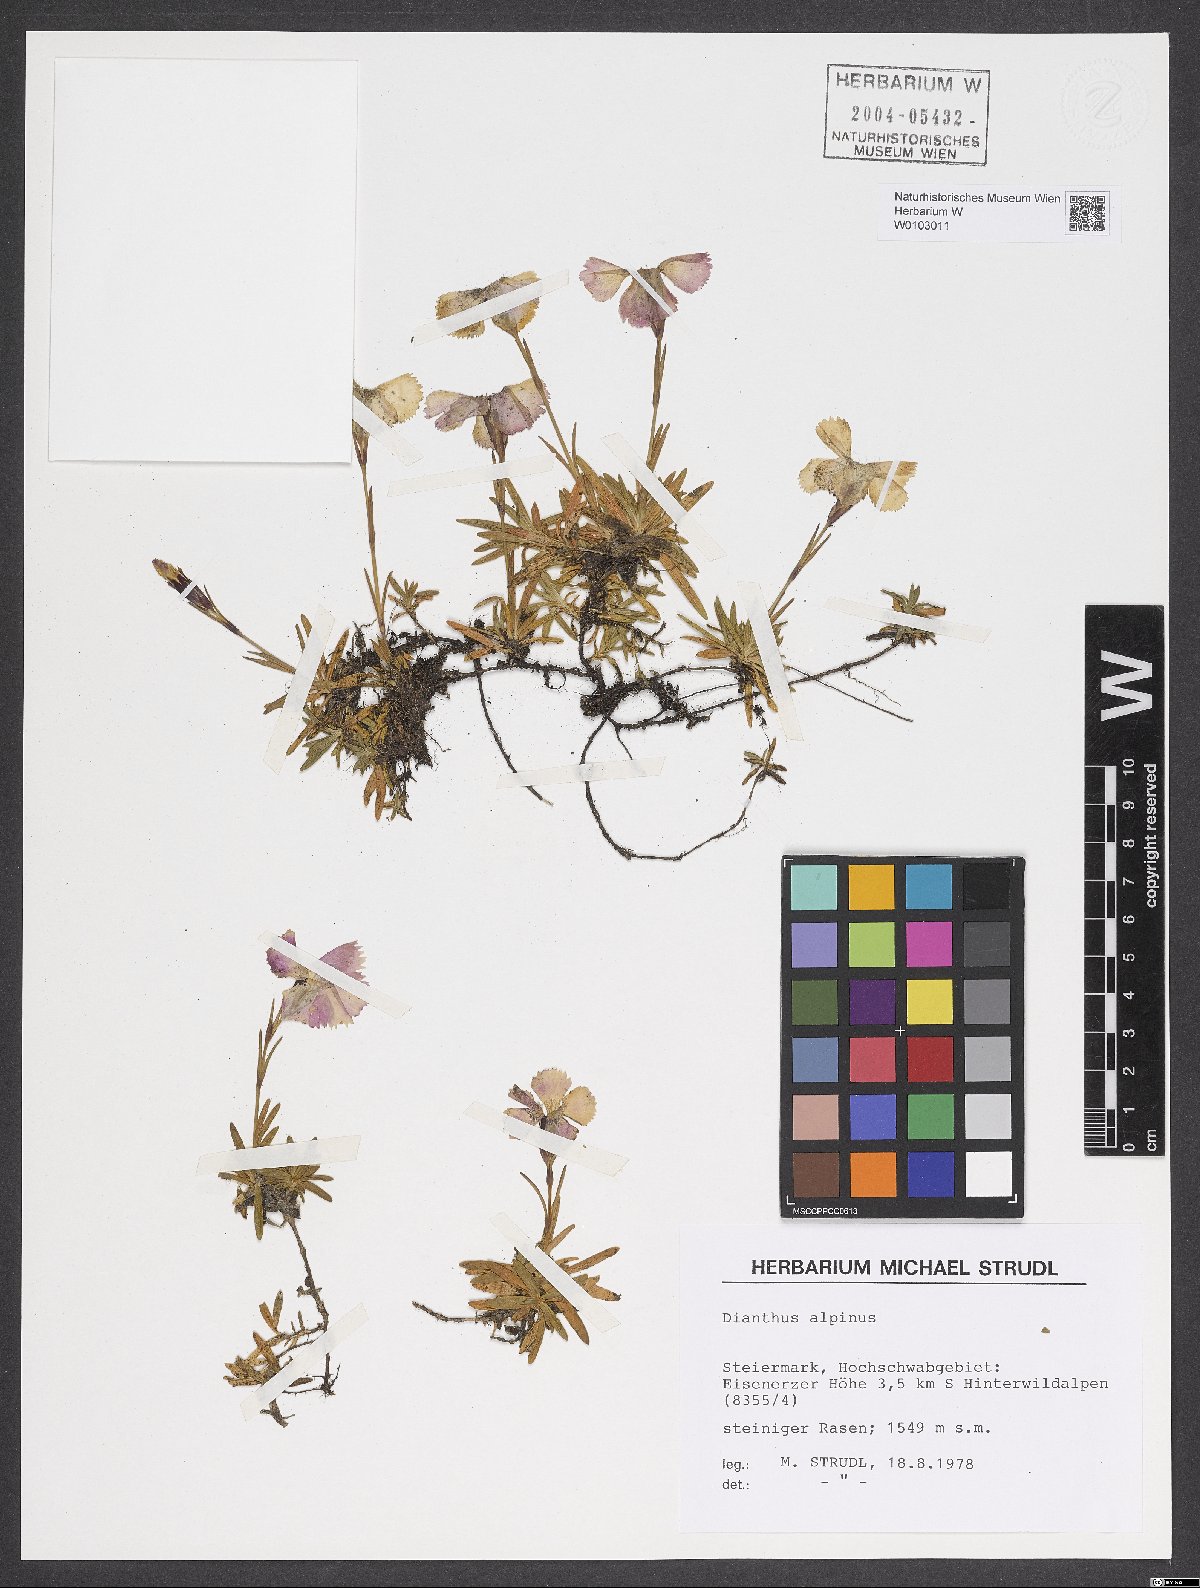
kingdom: Plantae
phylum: Tracheophyta
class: Magnoliopsida
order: Caryophyllales
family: Caryophyllaceae
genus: Dianthus
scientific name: Dianthus alpinus
